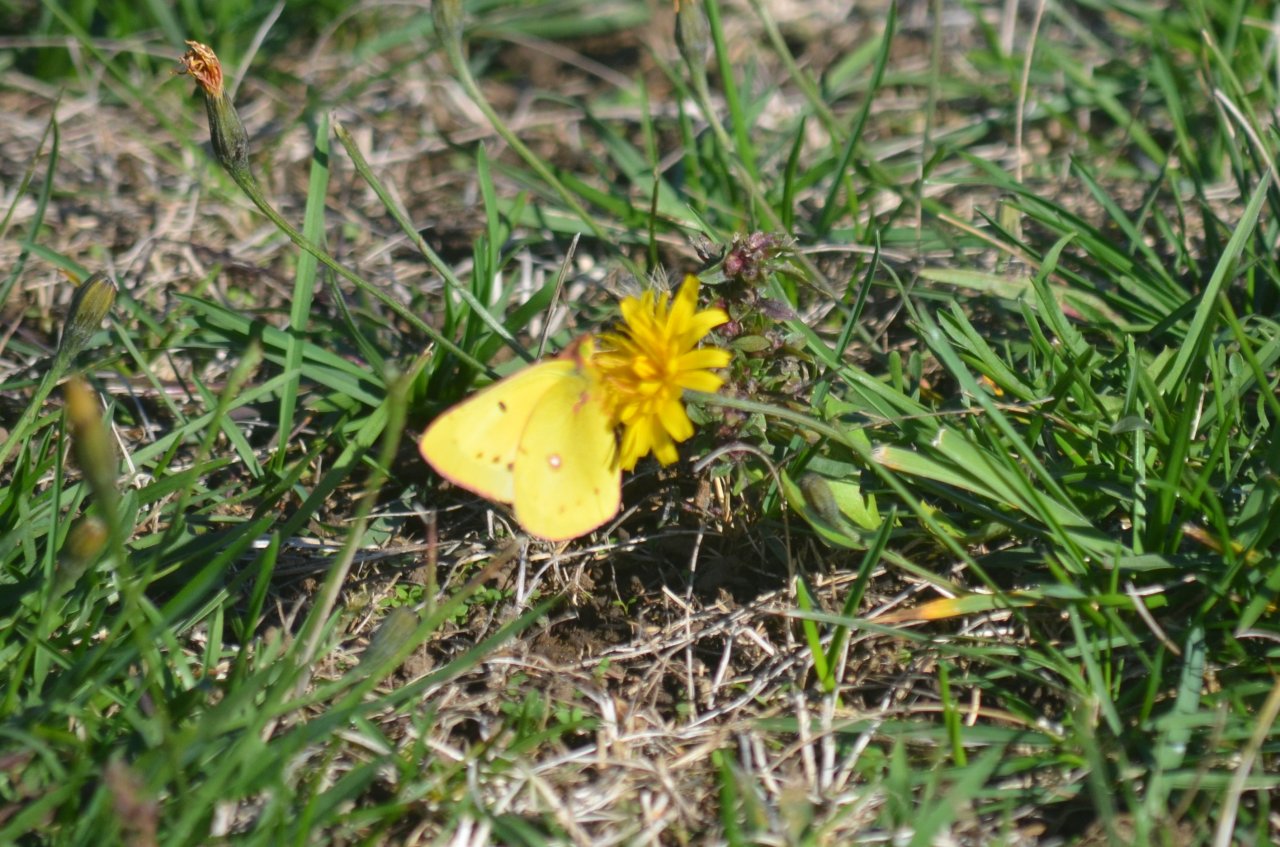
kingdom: Animalia
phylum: Arthropoda
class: Insecta
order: Lepidoptera
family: Pieridae
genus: Colias
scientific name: Colias eurytheme
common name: Orange Sulphur
